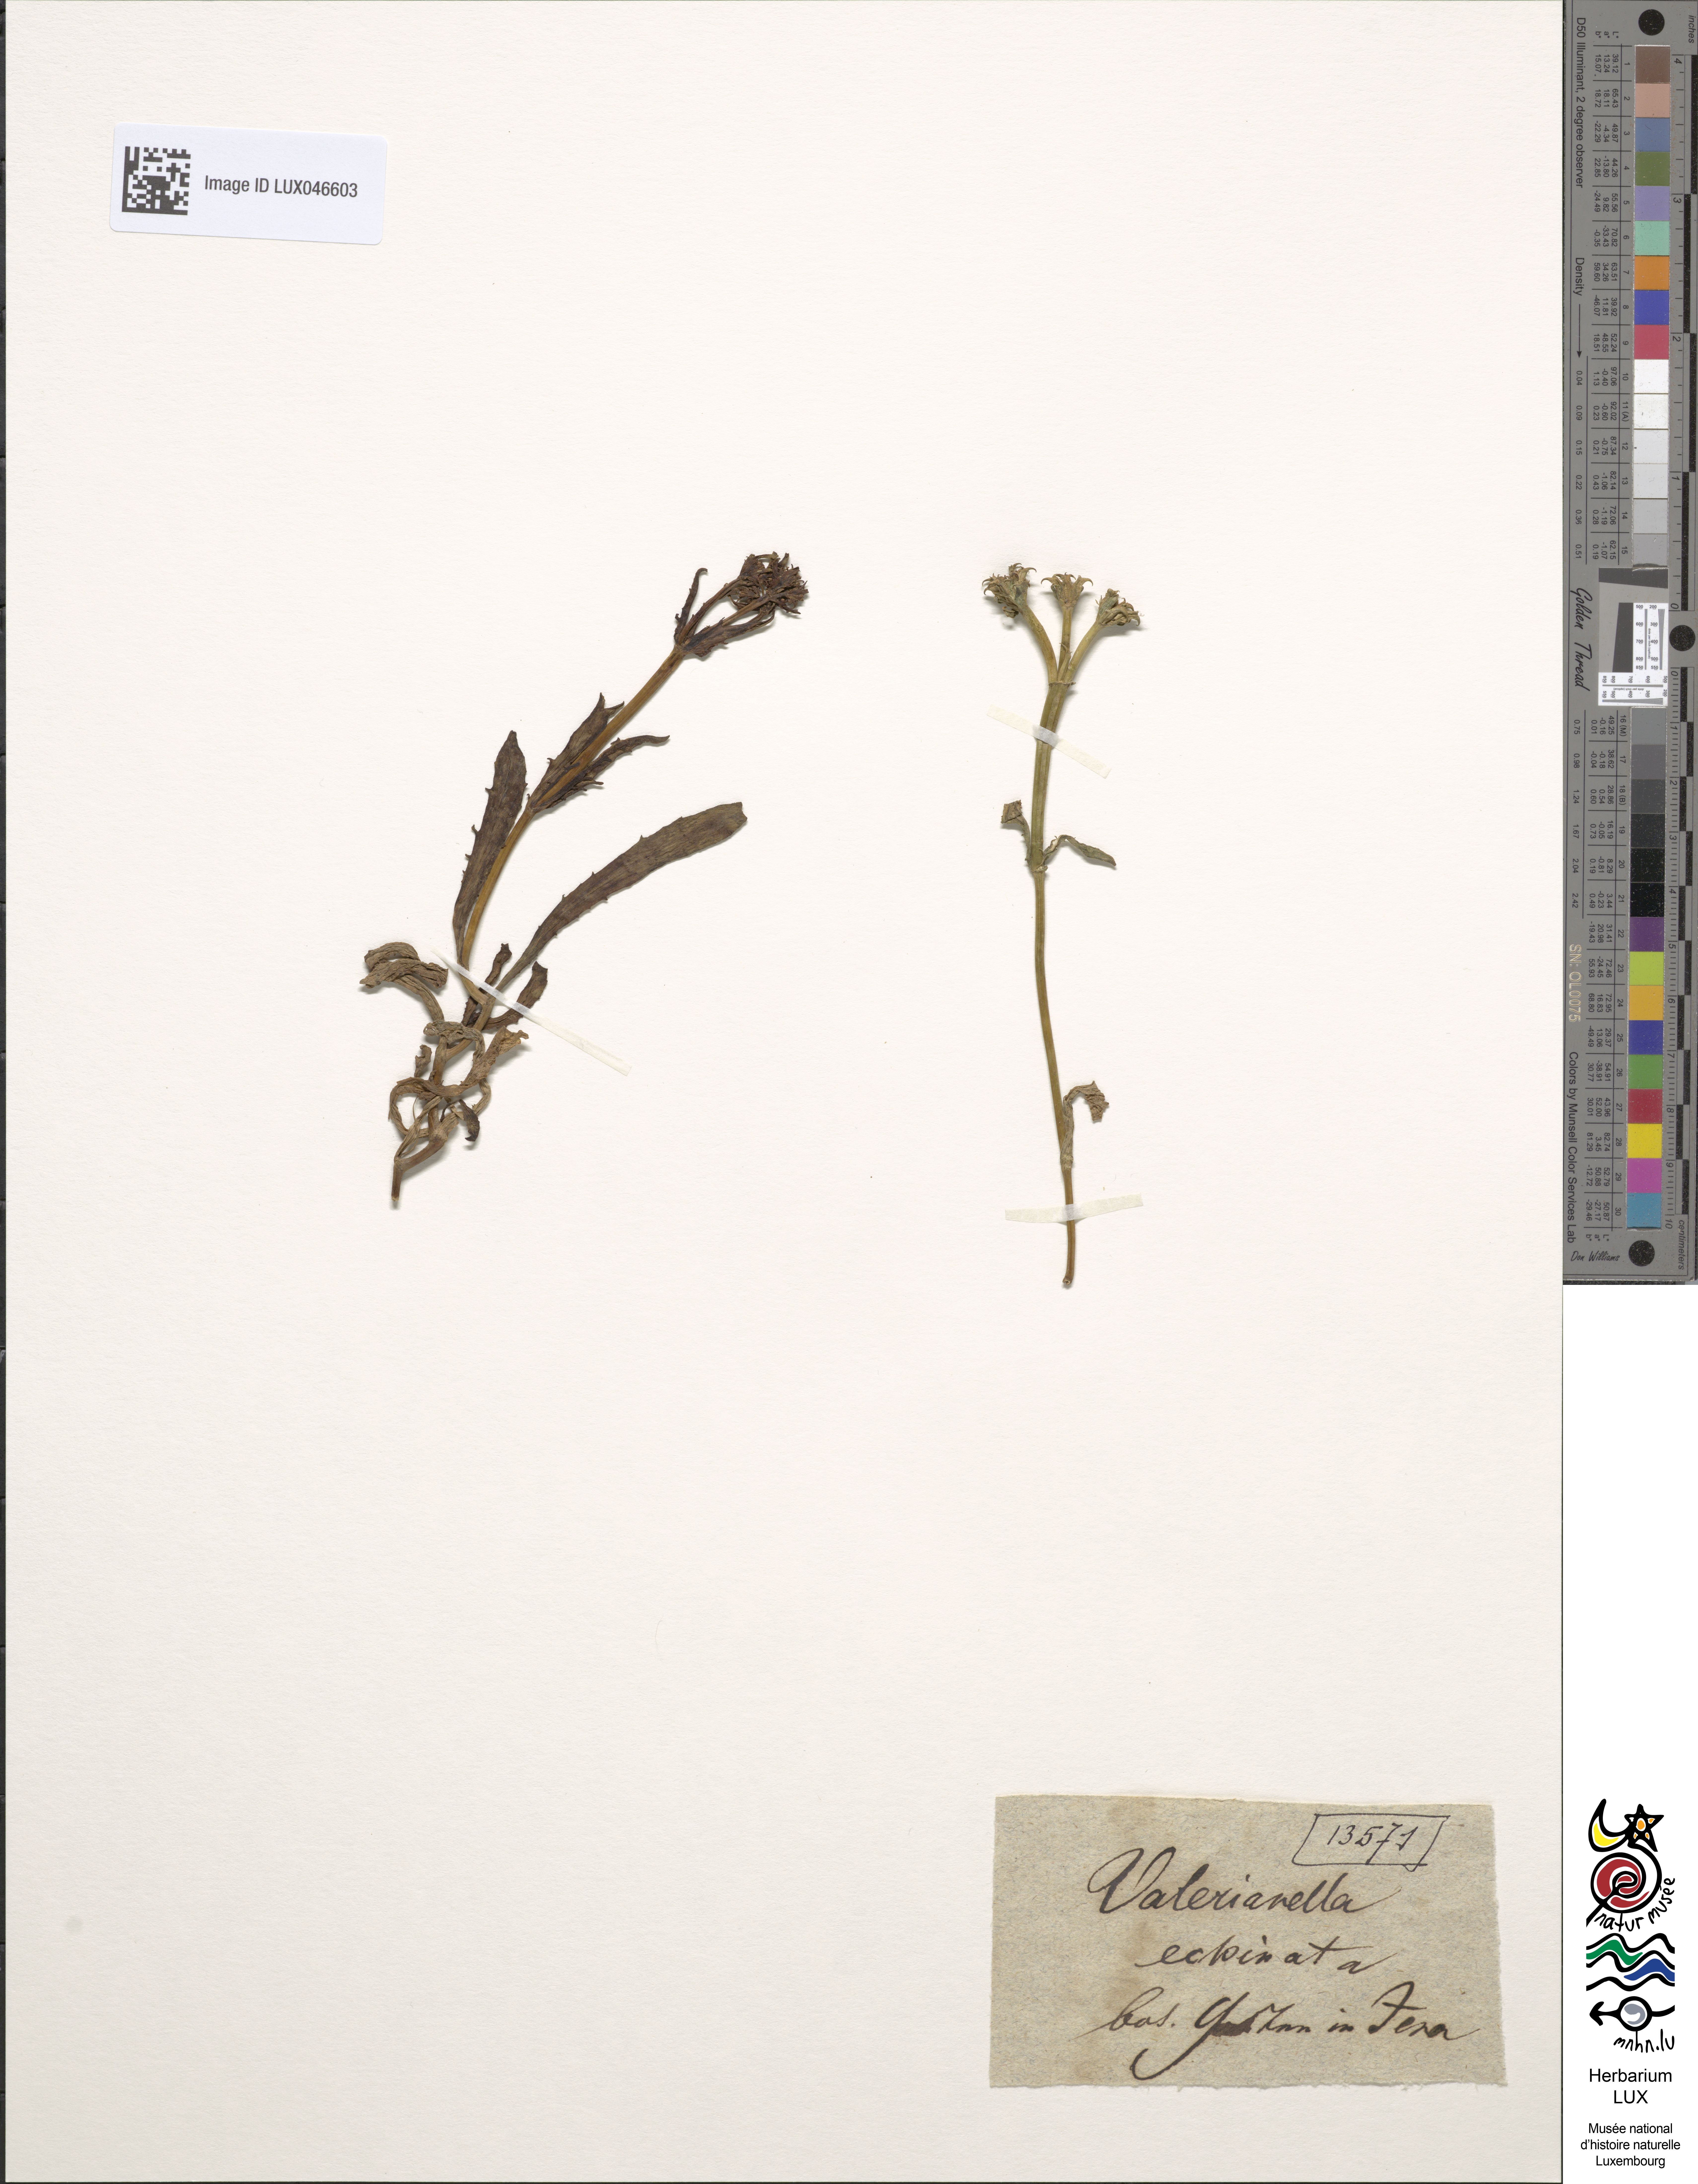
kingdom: Plantae
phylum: Tracheophyta
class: Magnoliopsida
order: Dipsacales
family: Caprifoliaceae
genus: Valerianella
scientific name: Valerianella echinata
